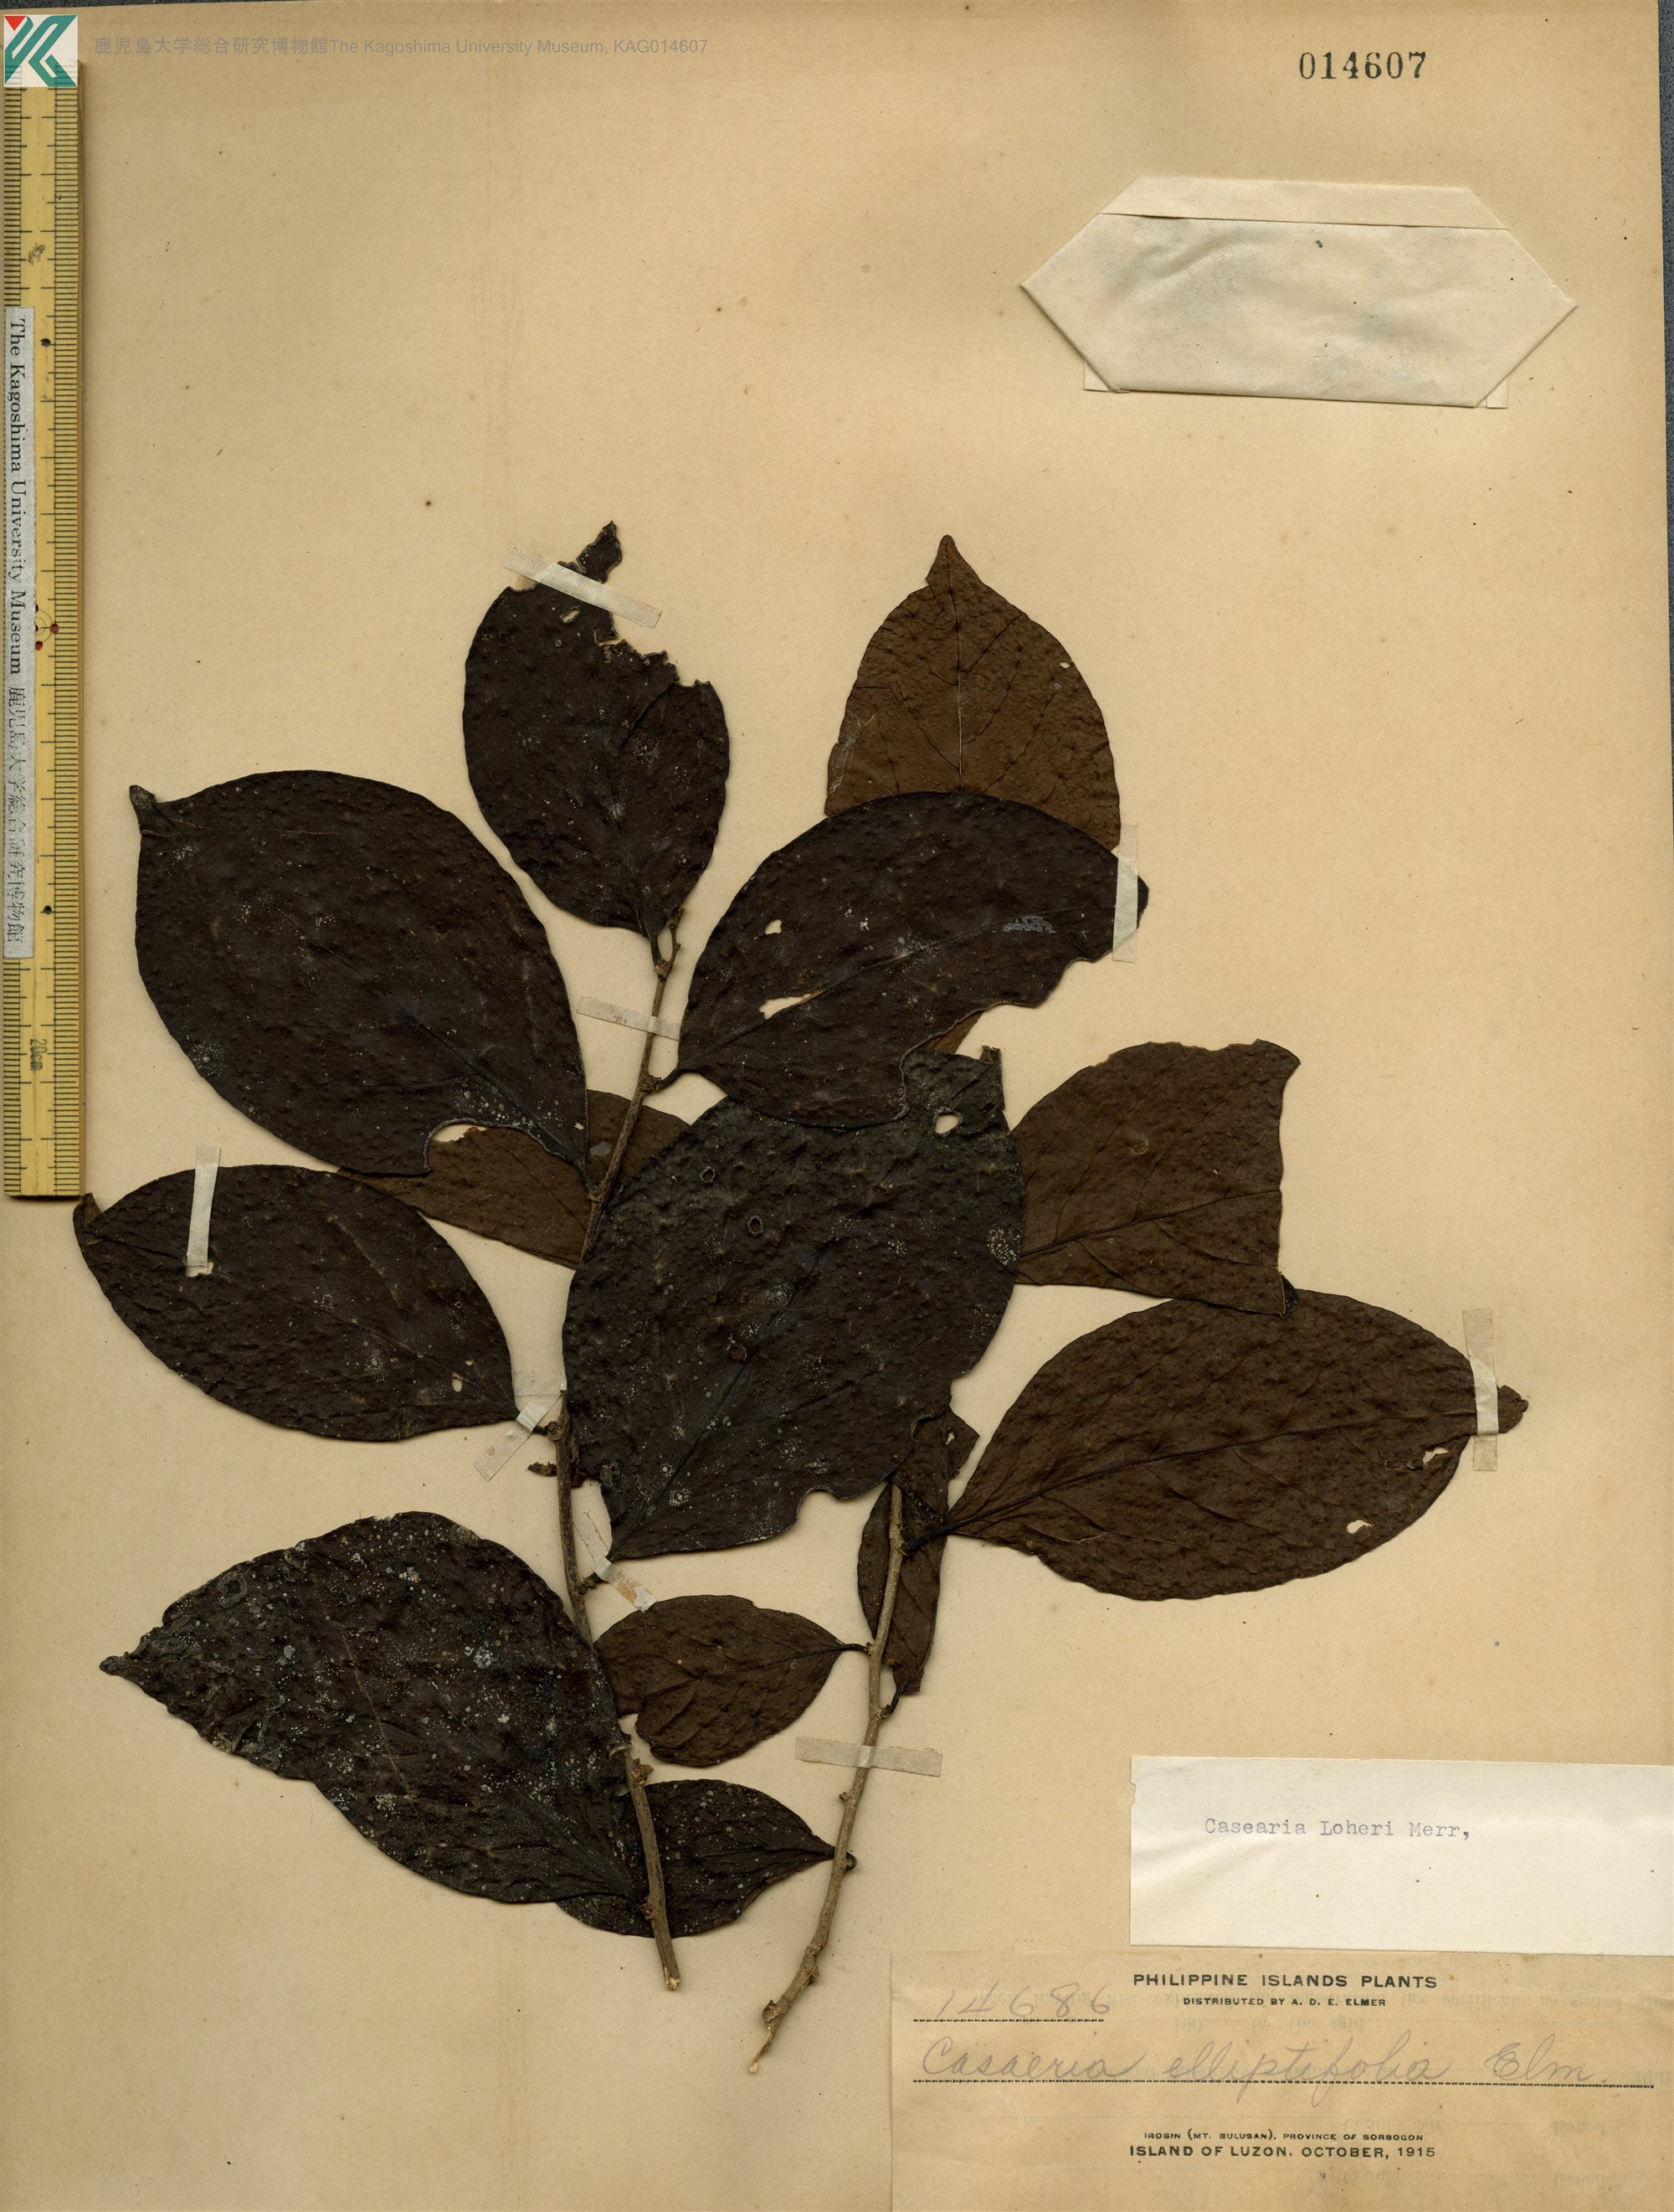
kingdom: Plantae
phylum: Tracheophyta
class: Magnoliopsida
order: Malpighiales
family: Salicaceae
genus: Casearia
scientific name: Casearia loheri
